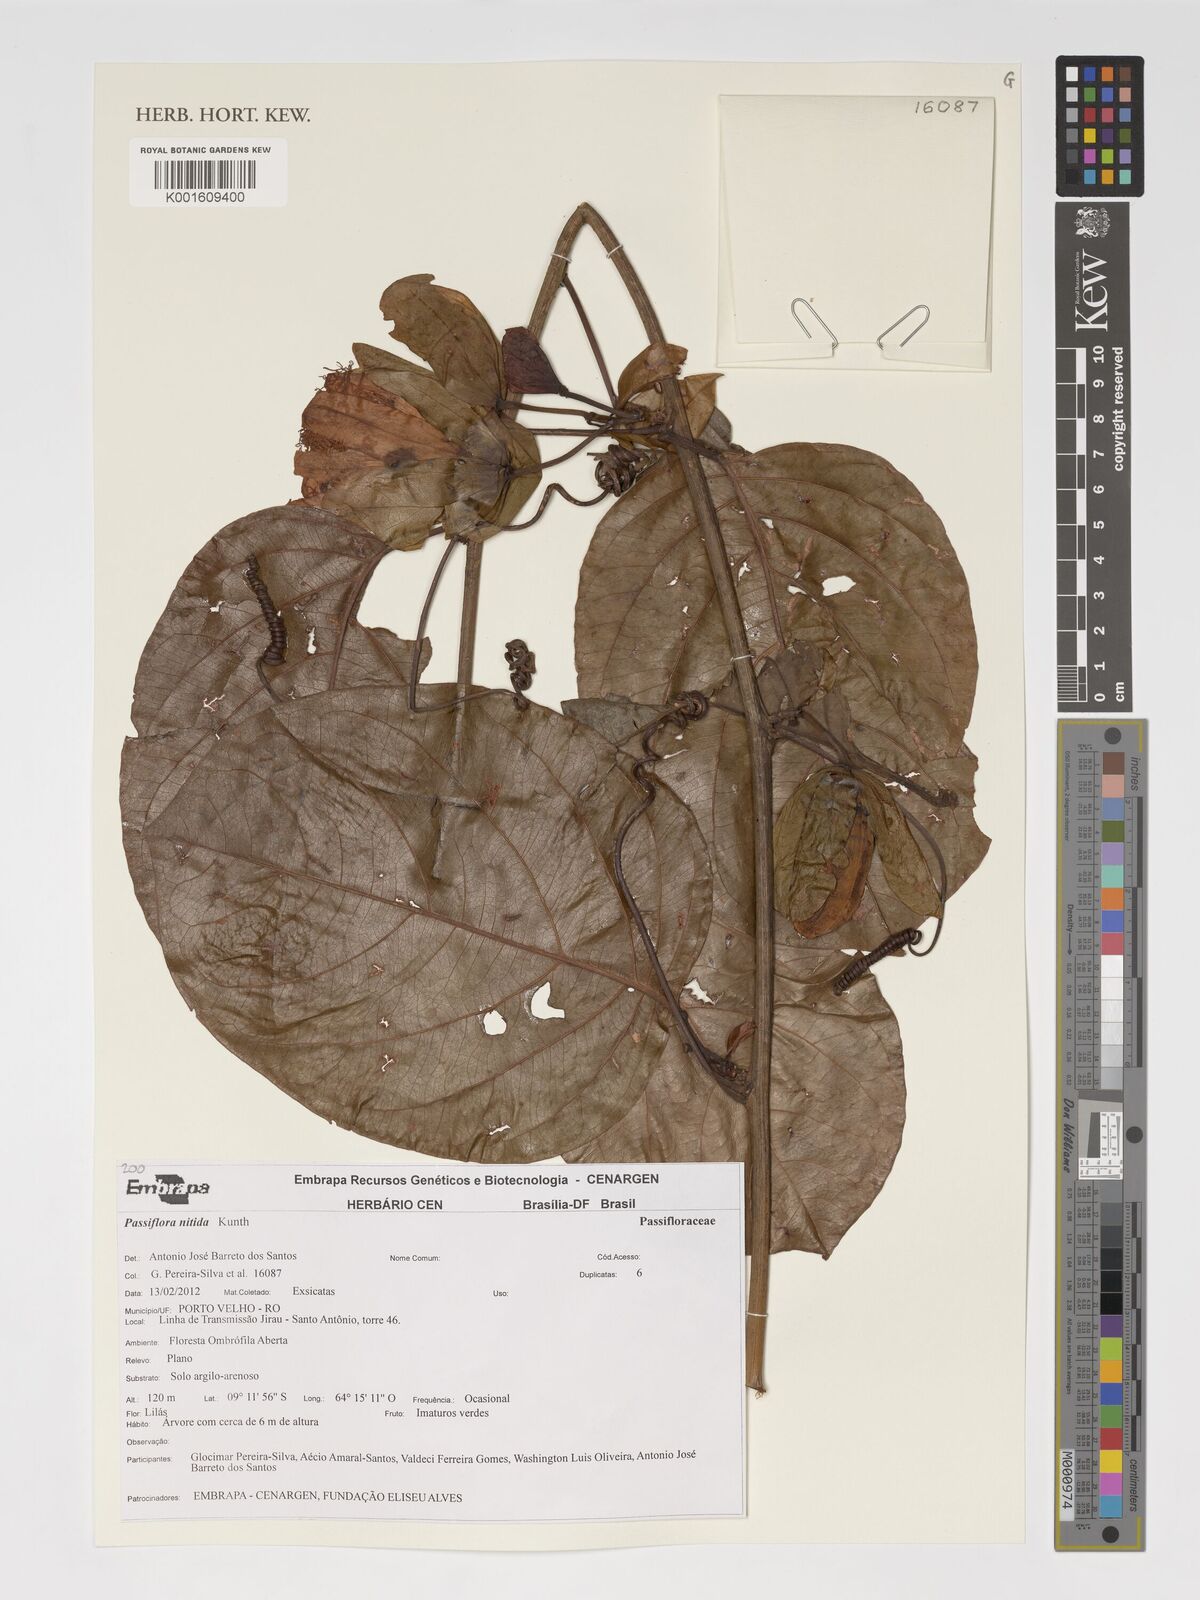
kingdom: Plantae
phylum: Tracheophyta
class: Magnoliopsida
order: Malpighiales
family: Passifloraceae
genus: Passiflora
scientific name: Passiflora nitida
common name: Bell-apple
